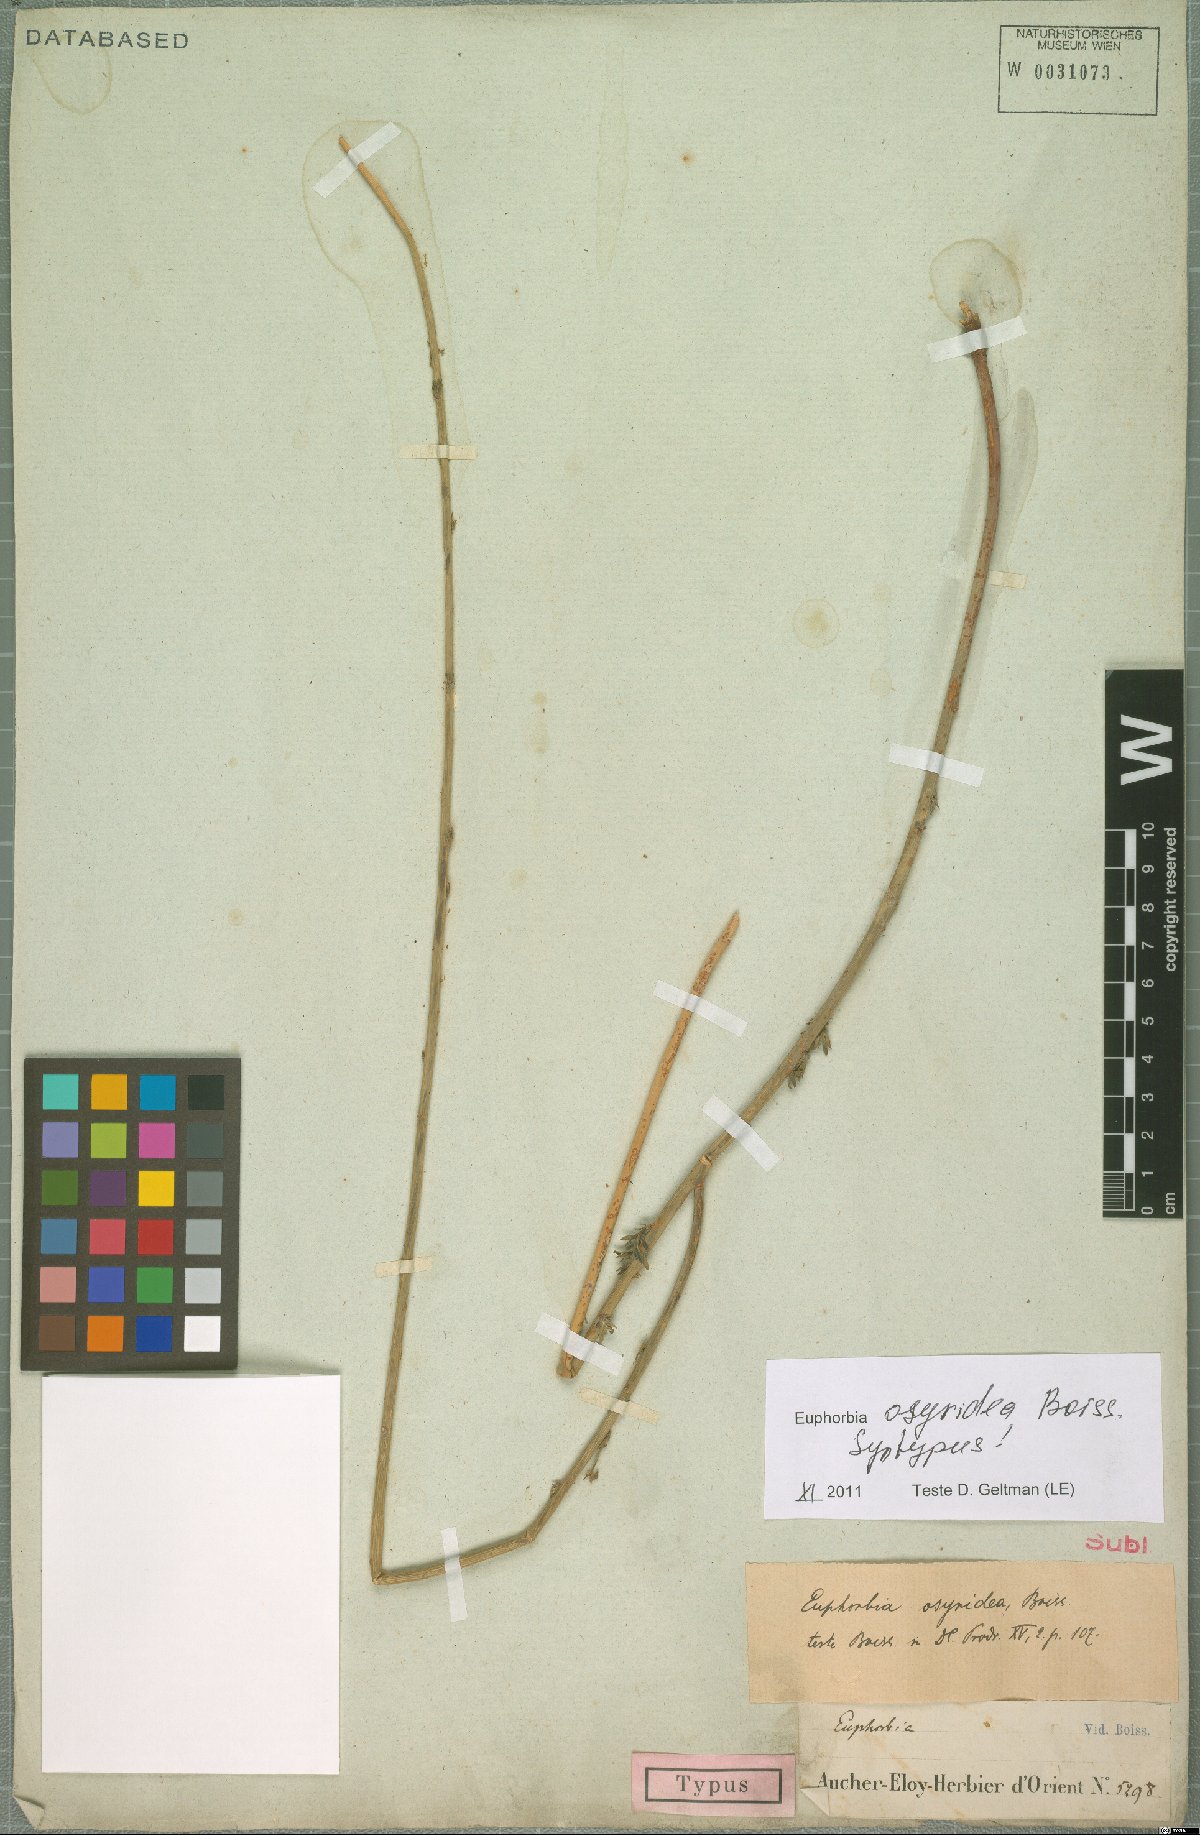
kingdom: Plantae
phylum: Tracheophyta
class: Magnoliopsida
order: Malpighiales
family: Euphorbiaceae
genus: Euphorbia
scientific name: Euphorbia osyridea
